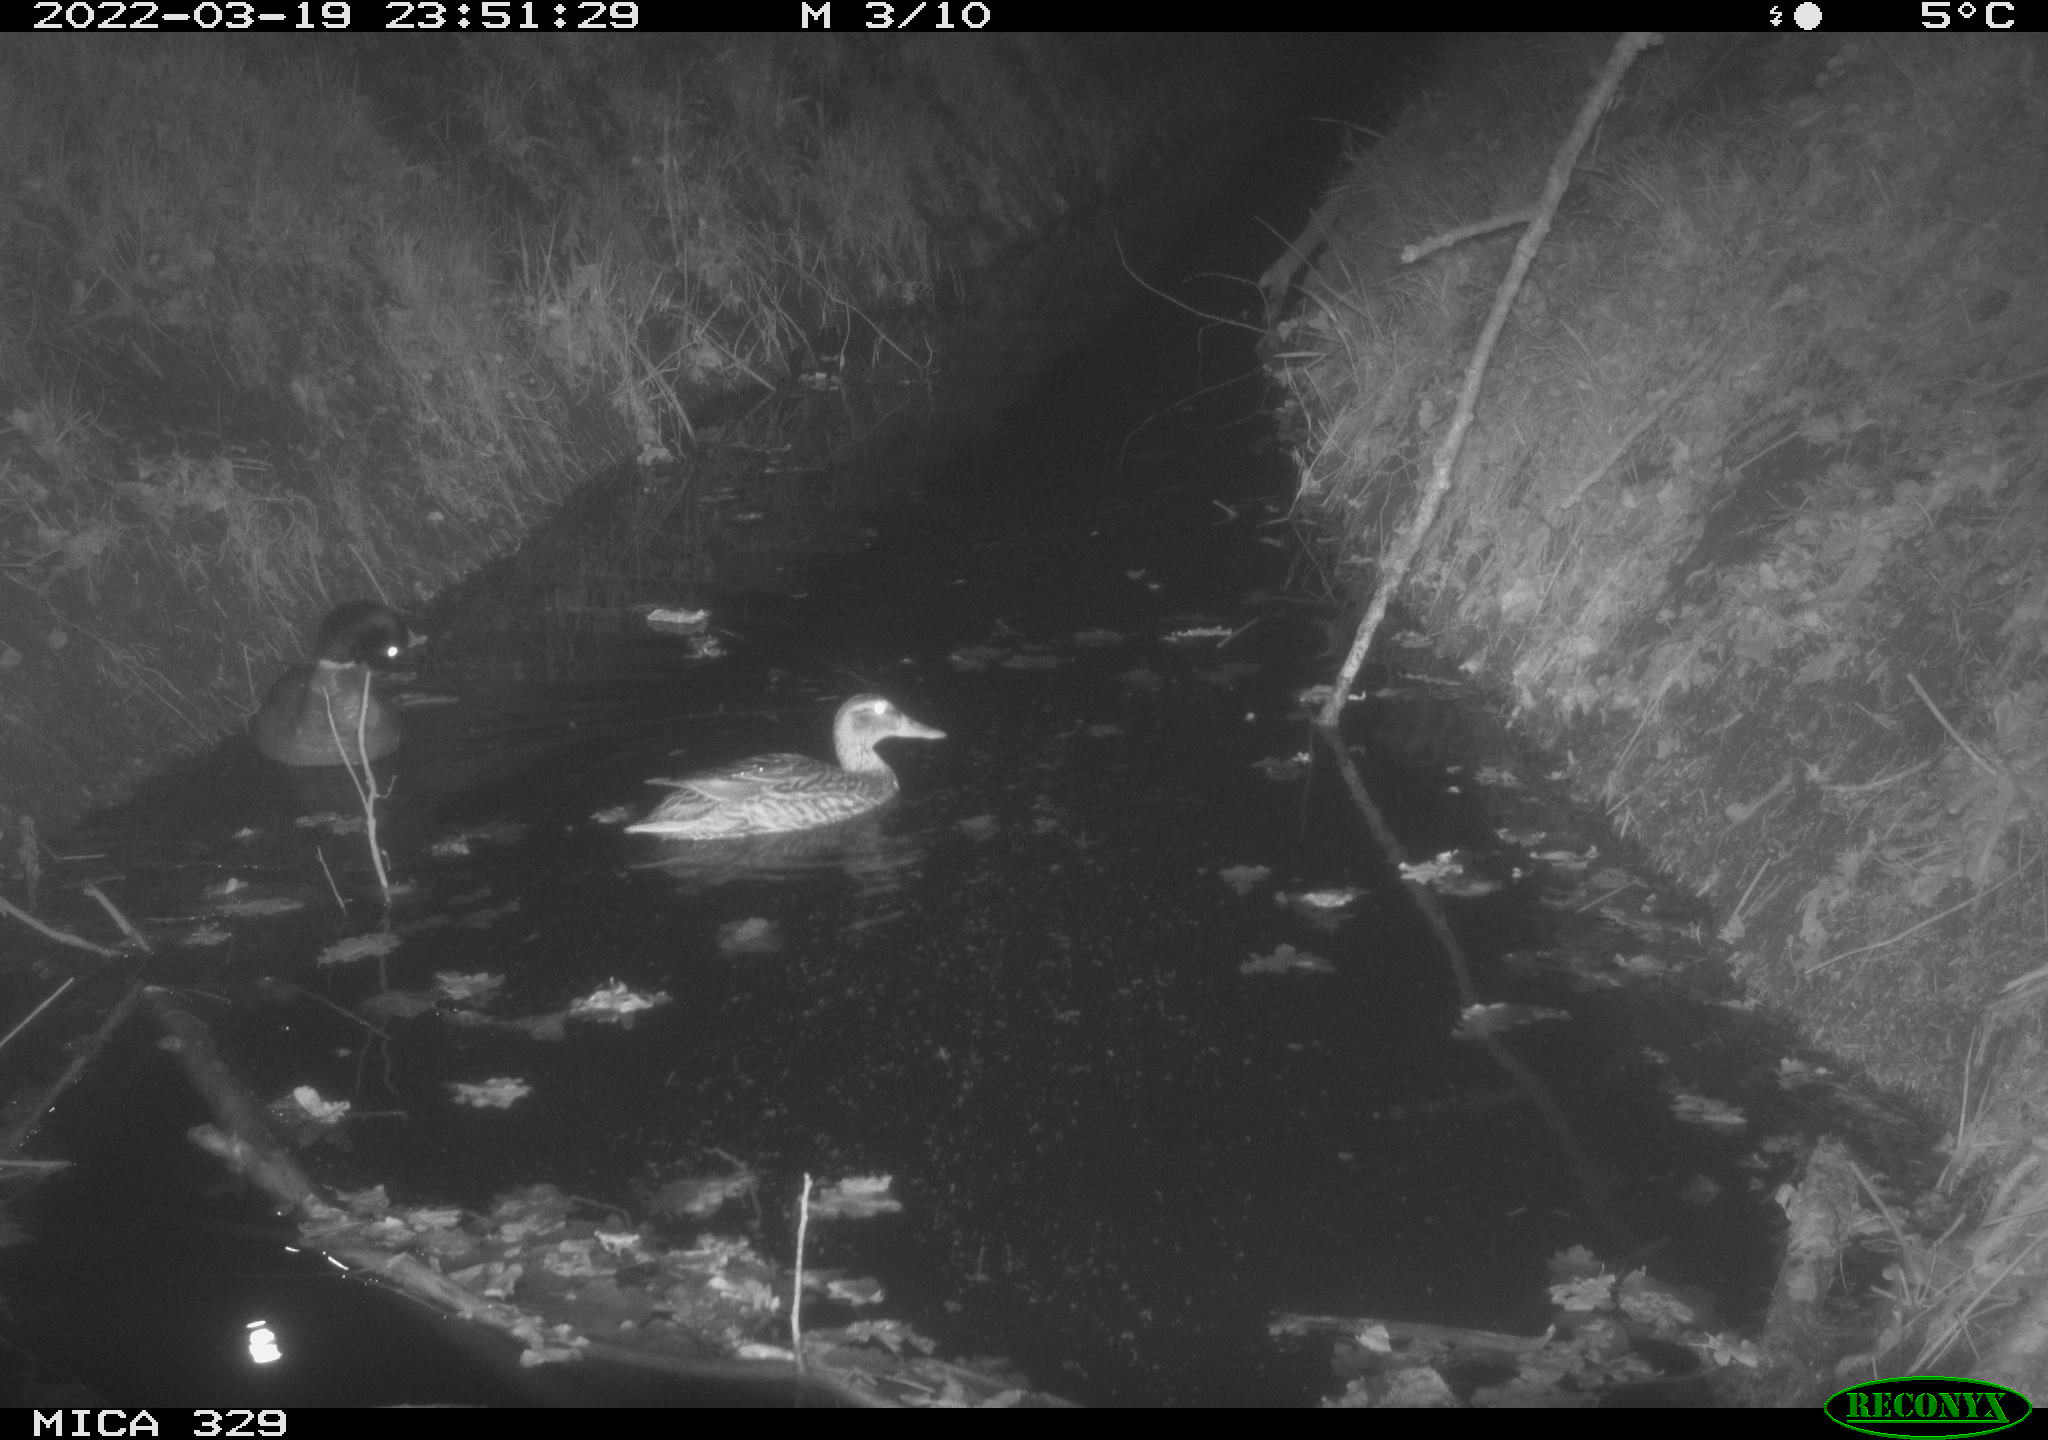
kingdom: Animalia
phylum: Chordata
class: Aves
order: Anseriformes
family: Anatidae
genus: Anas
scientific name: Anas platyrhynchos
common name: Mallard
